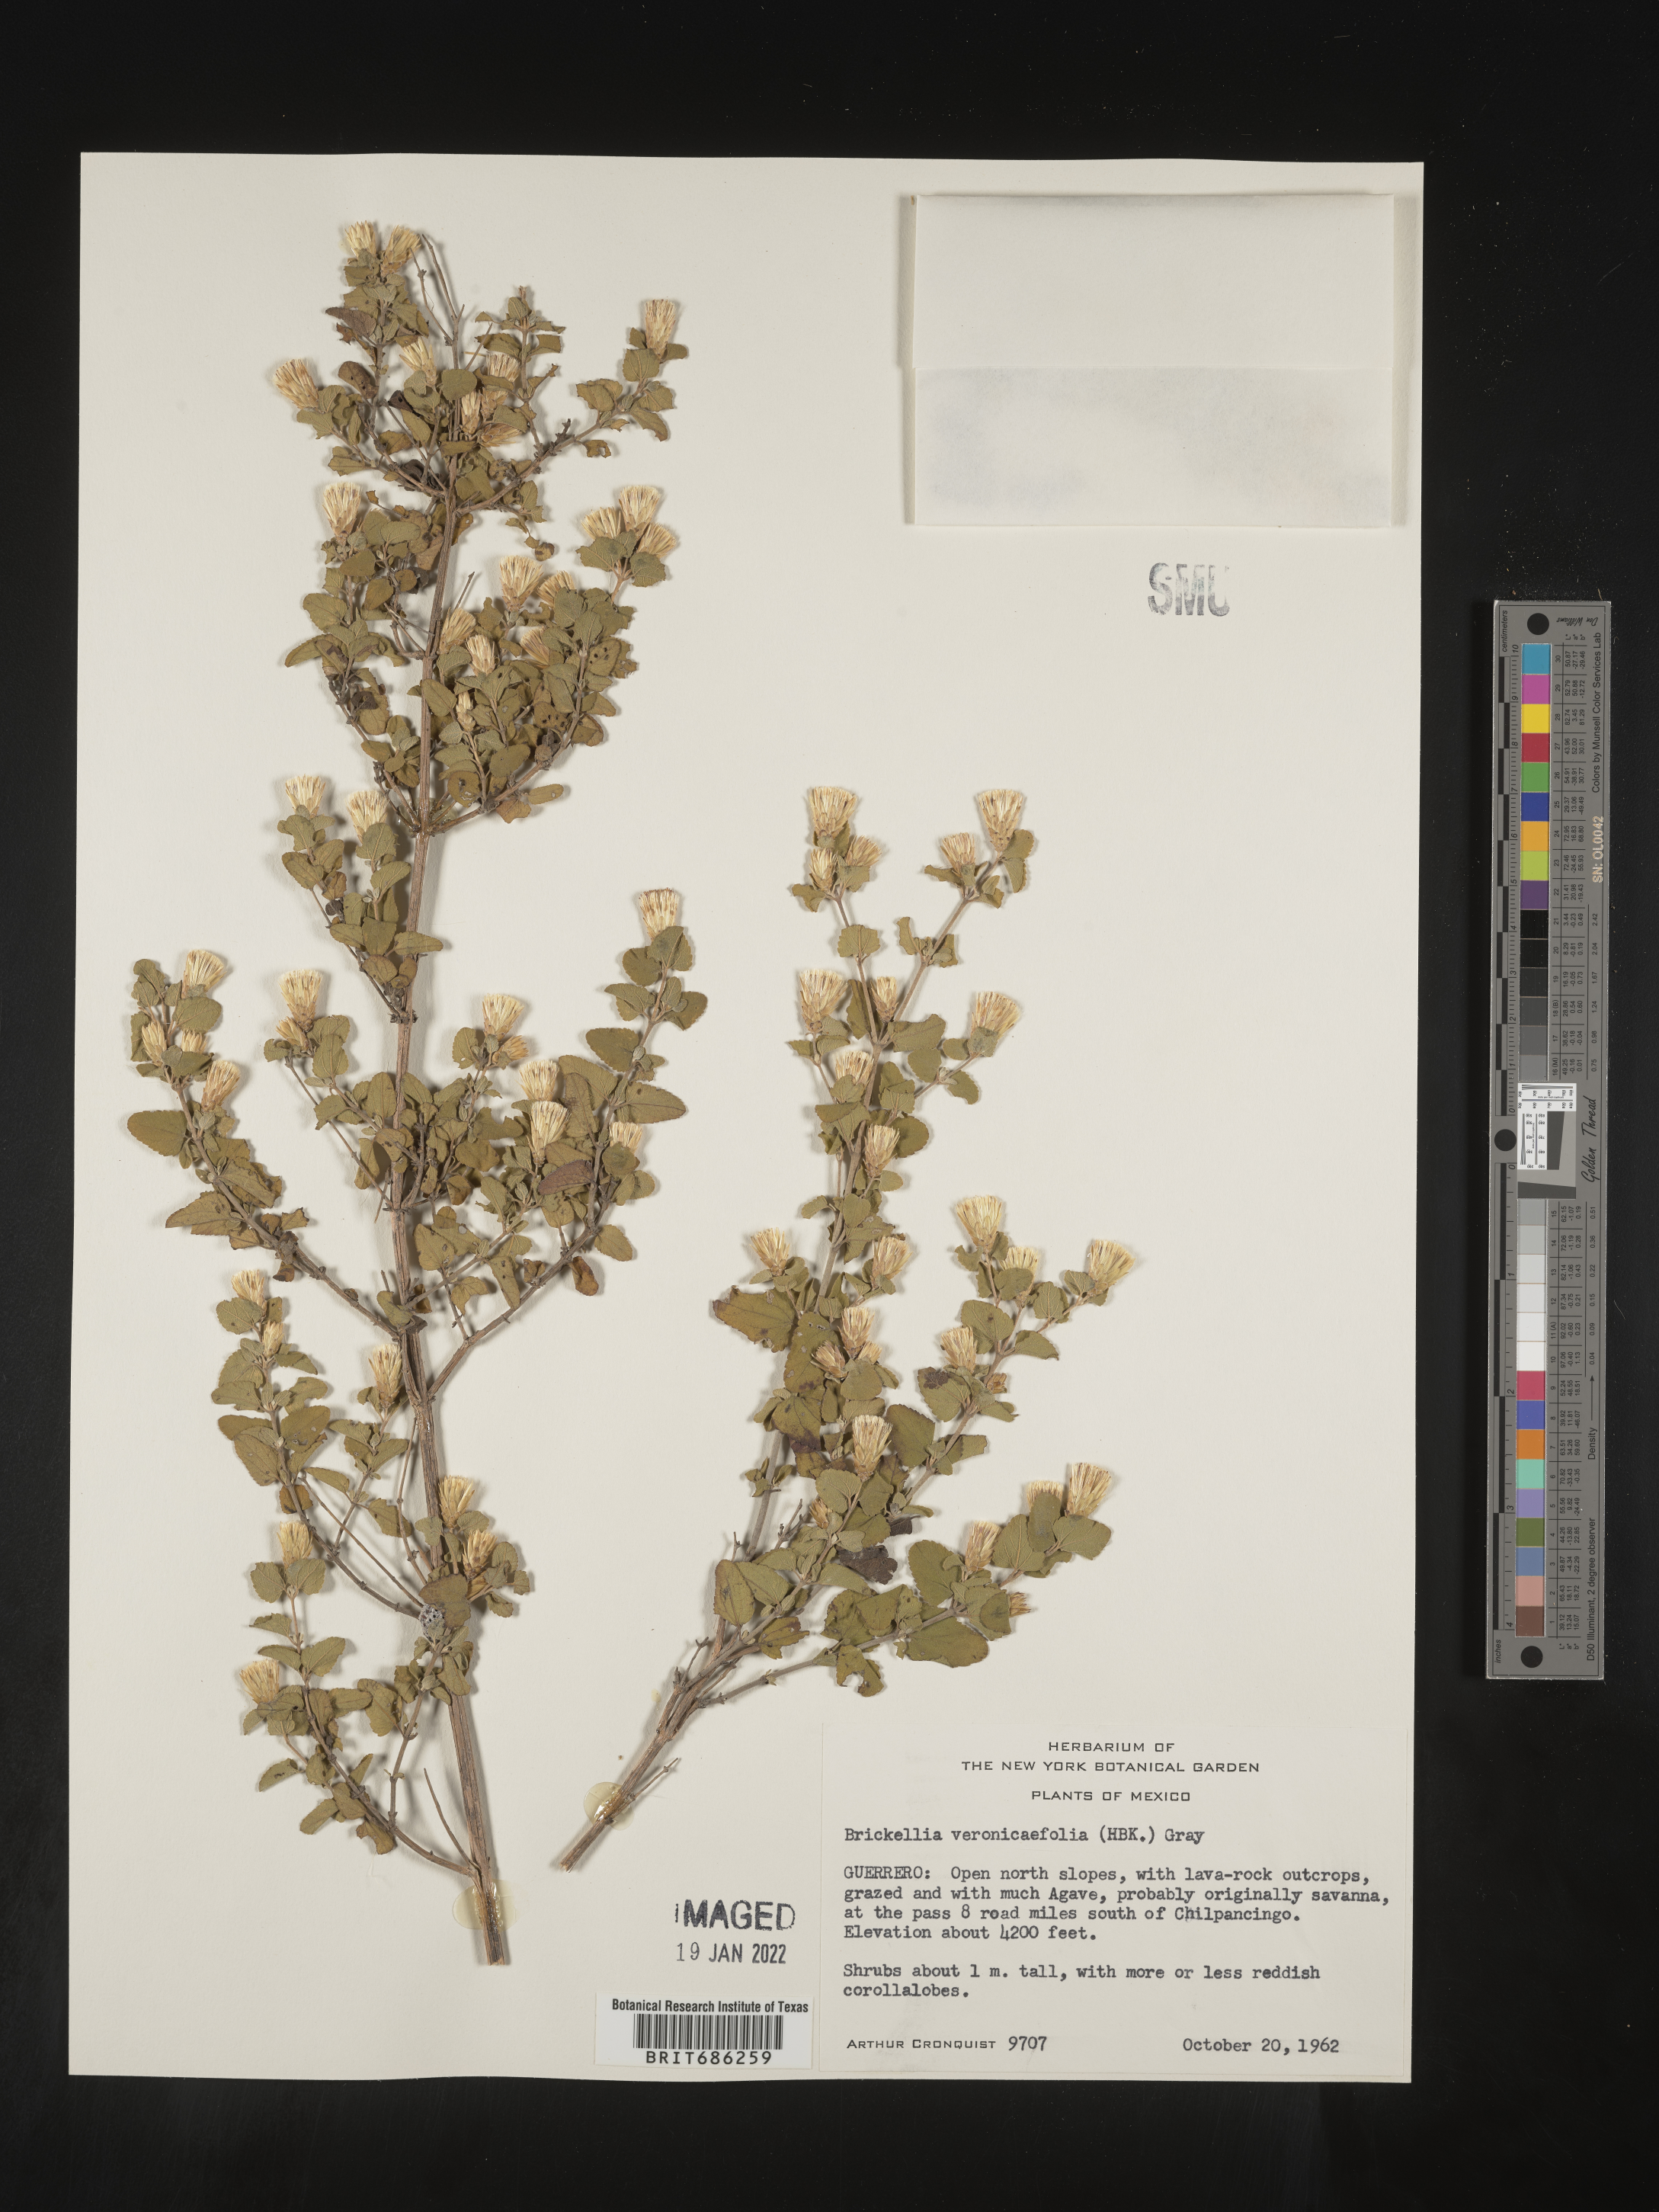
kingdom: Plantae
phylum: Tracheophyta
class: Magnoliopsida
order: Asterales
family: Asteraceae
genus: Brickellia
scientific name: Brickellia veronicifolia
